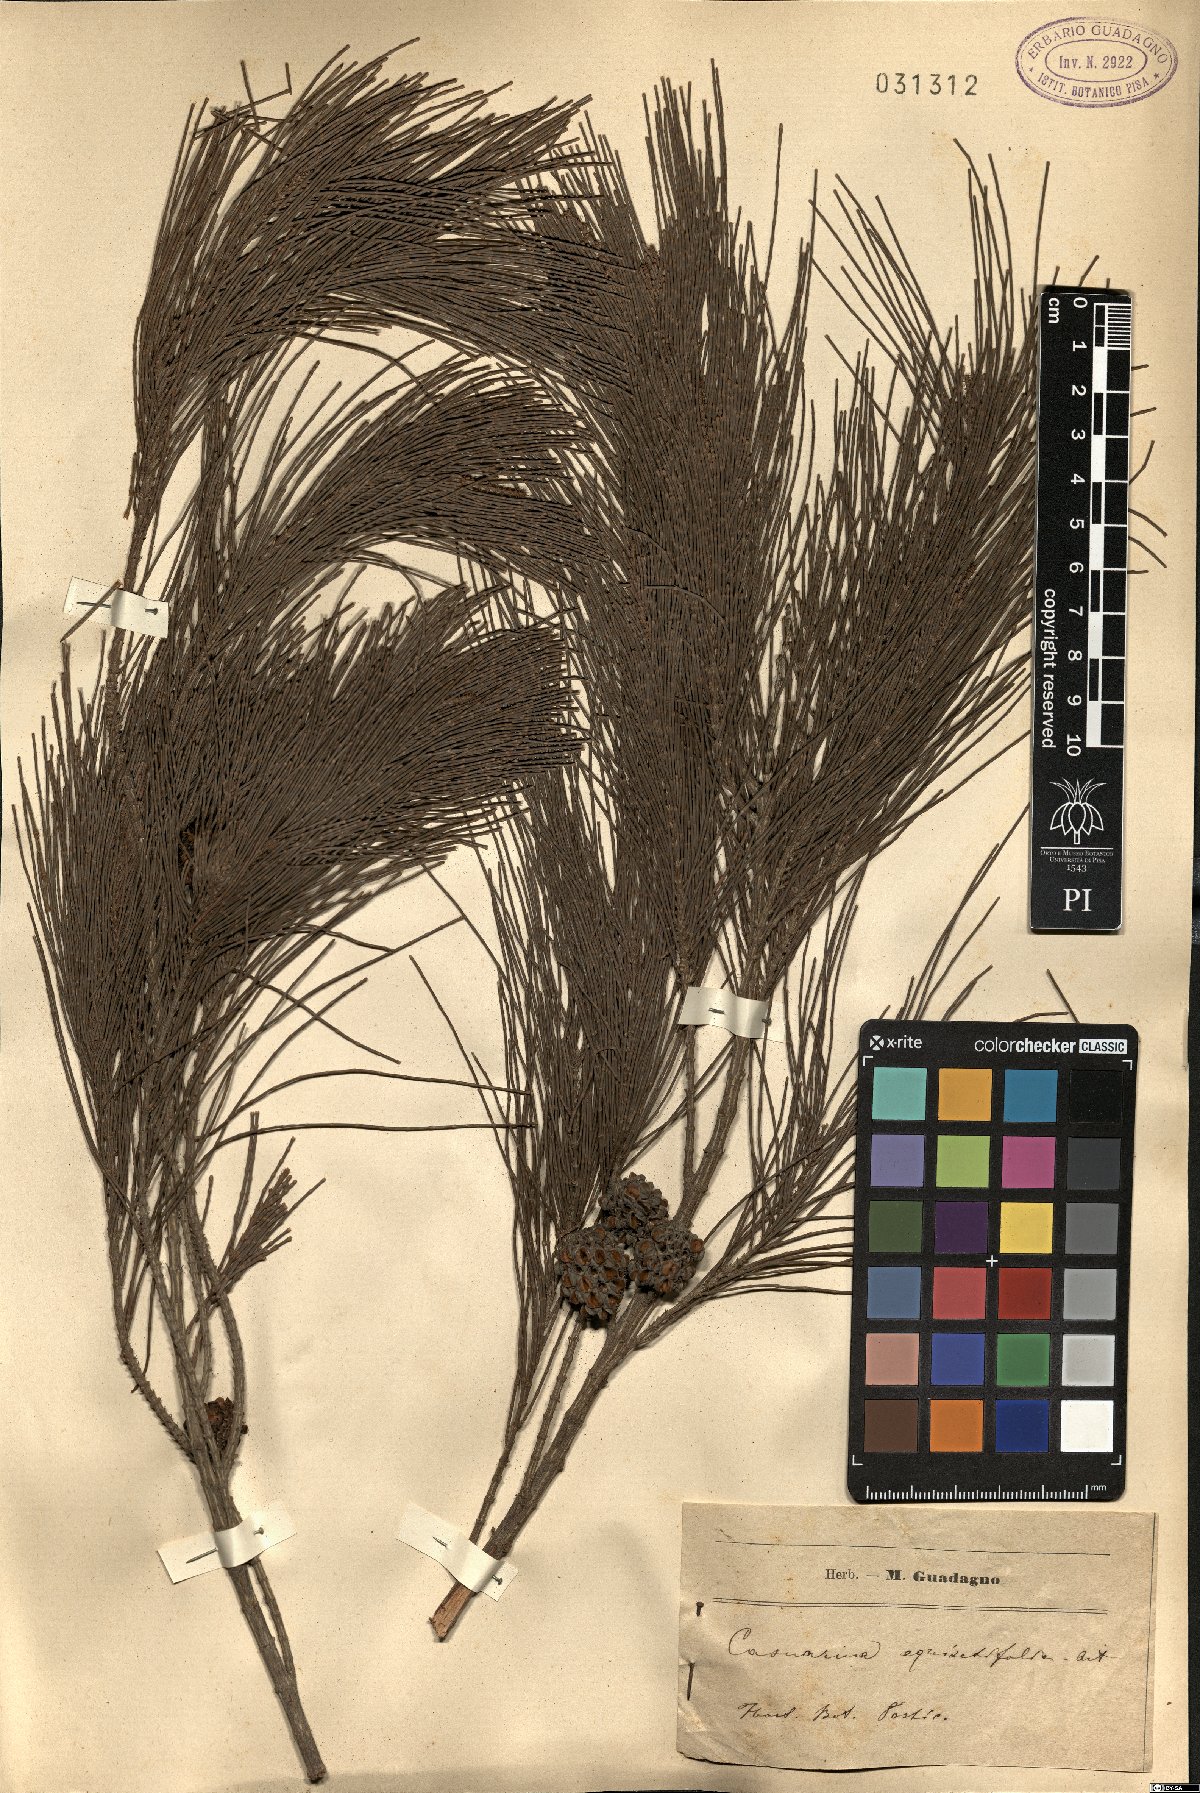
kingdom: Plantae
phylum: Tracheophyta
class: Magnoliopsida
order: Fagales
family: Casuarinaceae
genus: Casuarina
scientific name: Casuarina equisetifolia
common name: Beach sheoak
